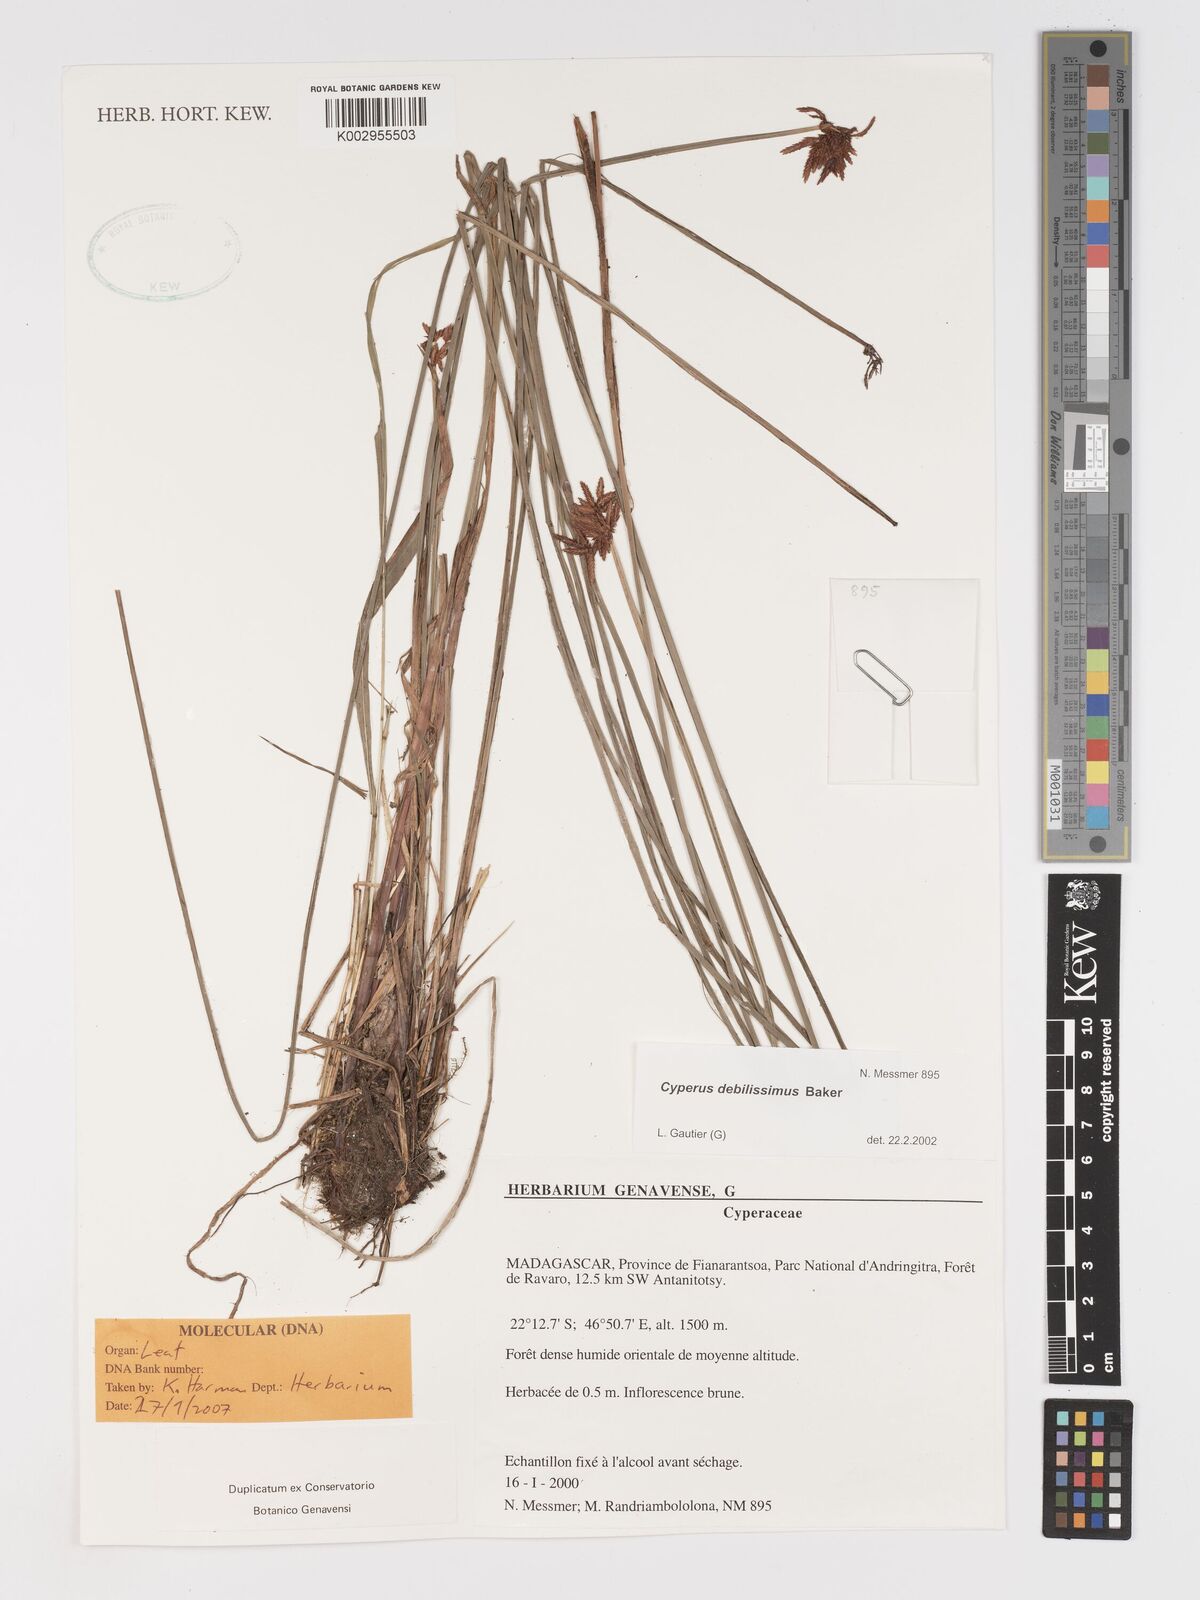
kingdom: Plantae
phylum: Tracheophyta
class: Liliopsida
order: Poales
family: Cyperaceae
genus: Cyperus
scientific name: Cyperus debilissimus
